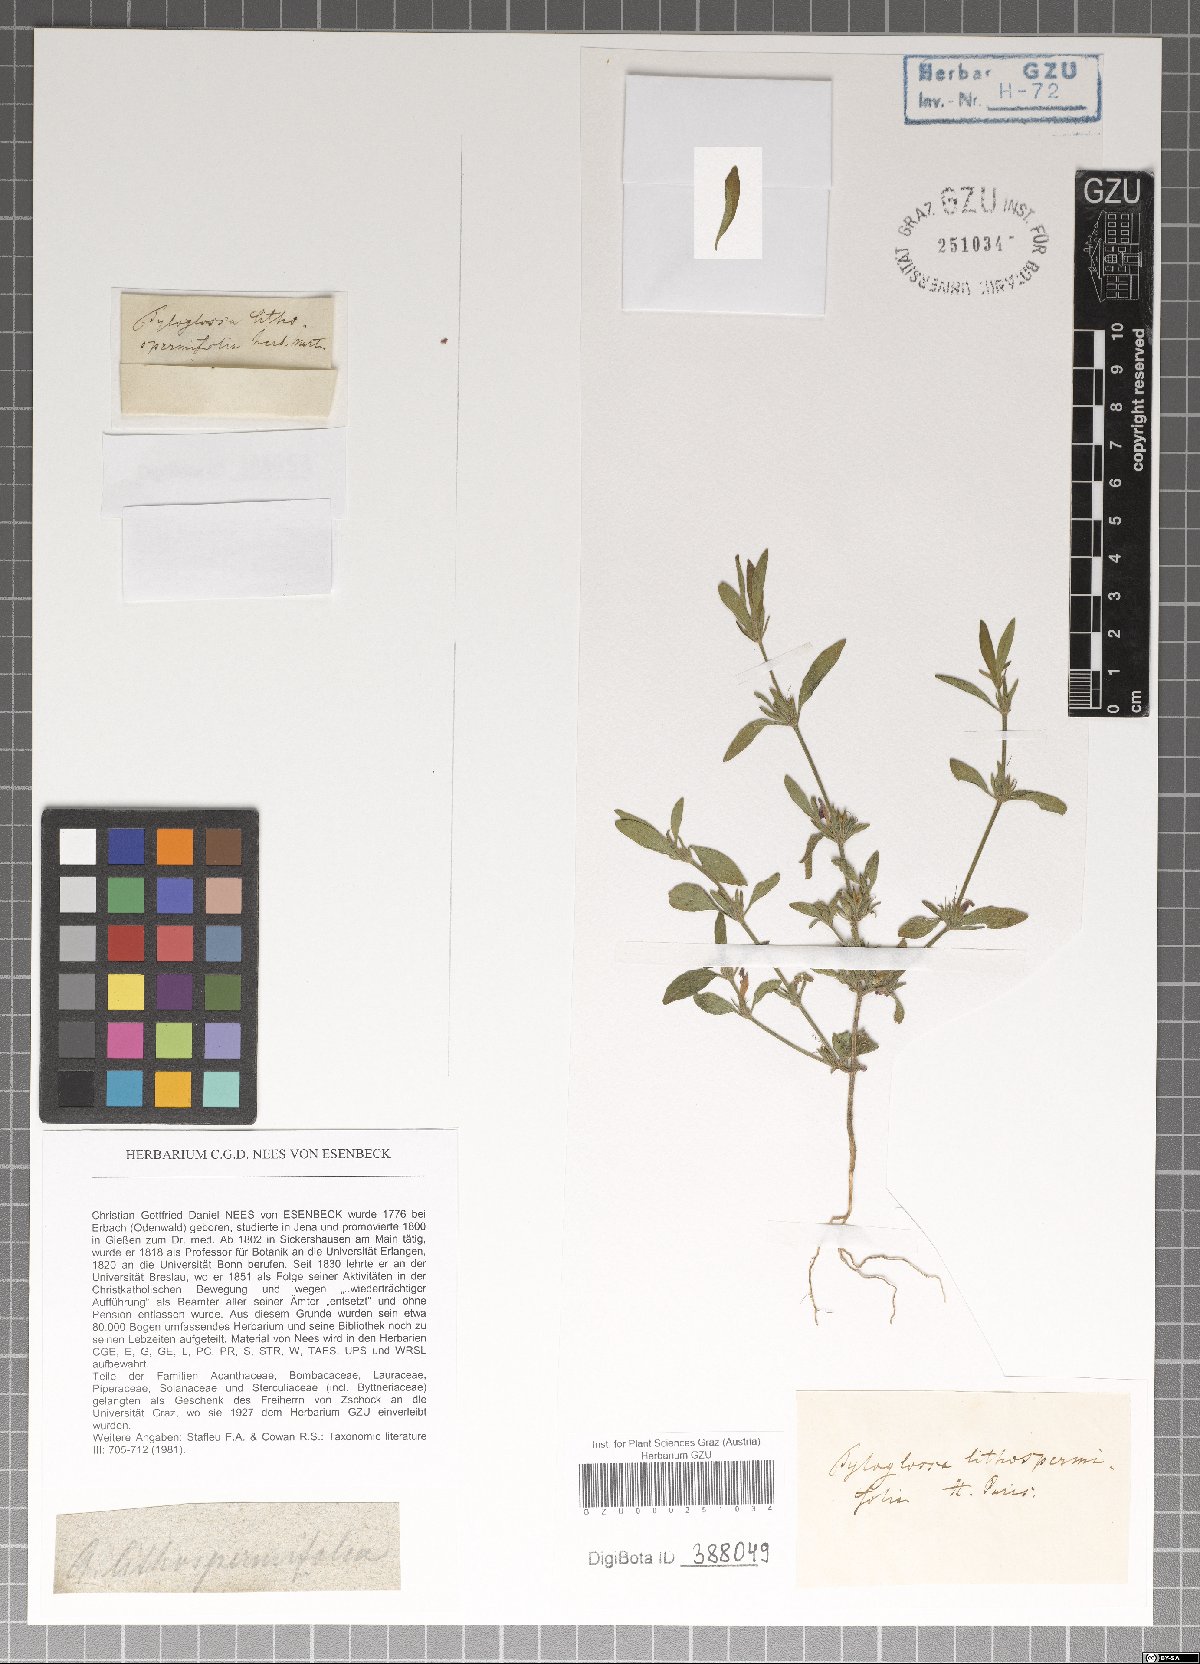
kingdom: Plantae
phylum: Tracheophyta
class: Magnoliopsida
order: Lamiales
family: Acanthaceae
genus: Justicia
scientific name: Justicia ladanoides
